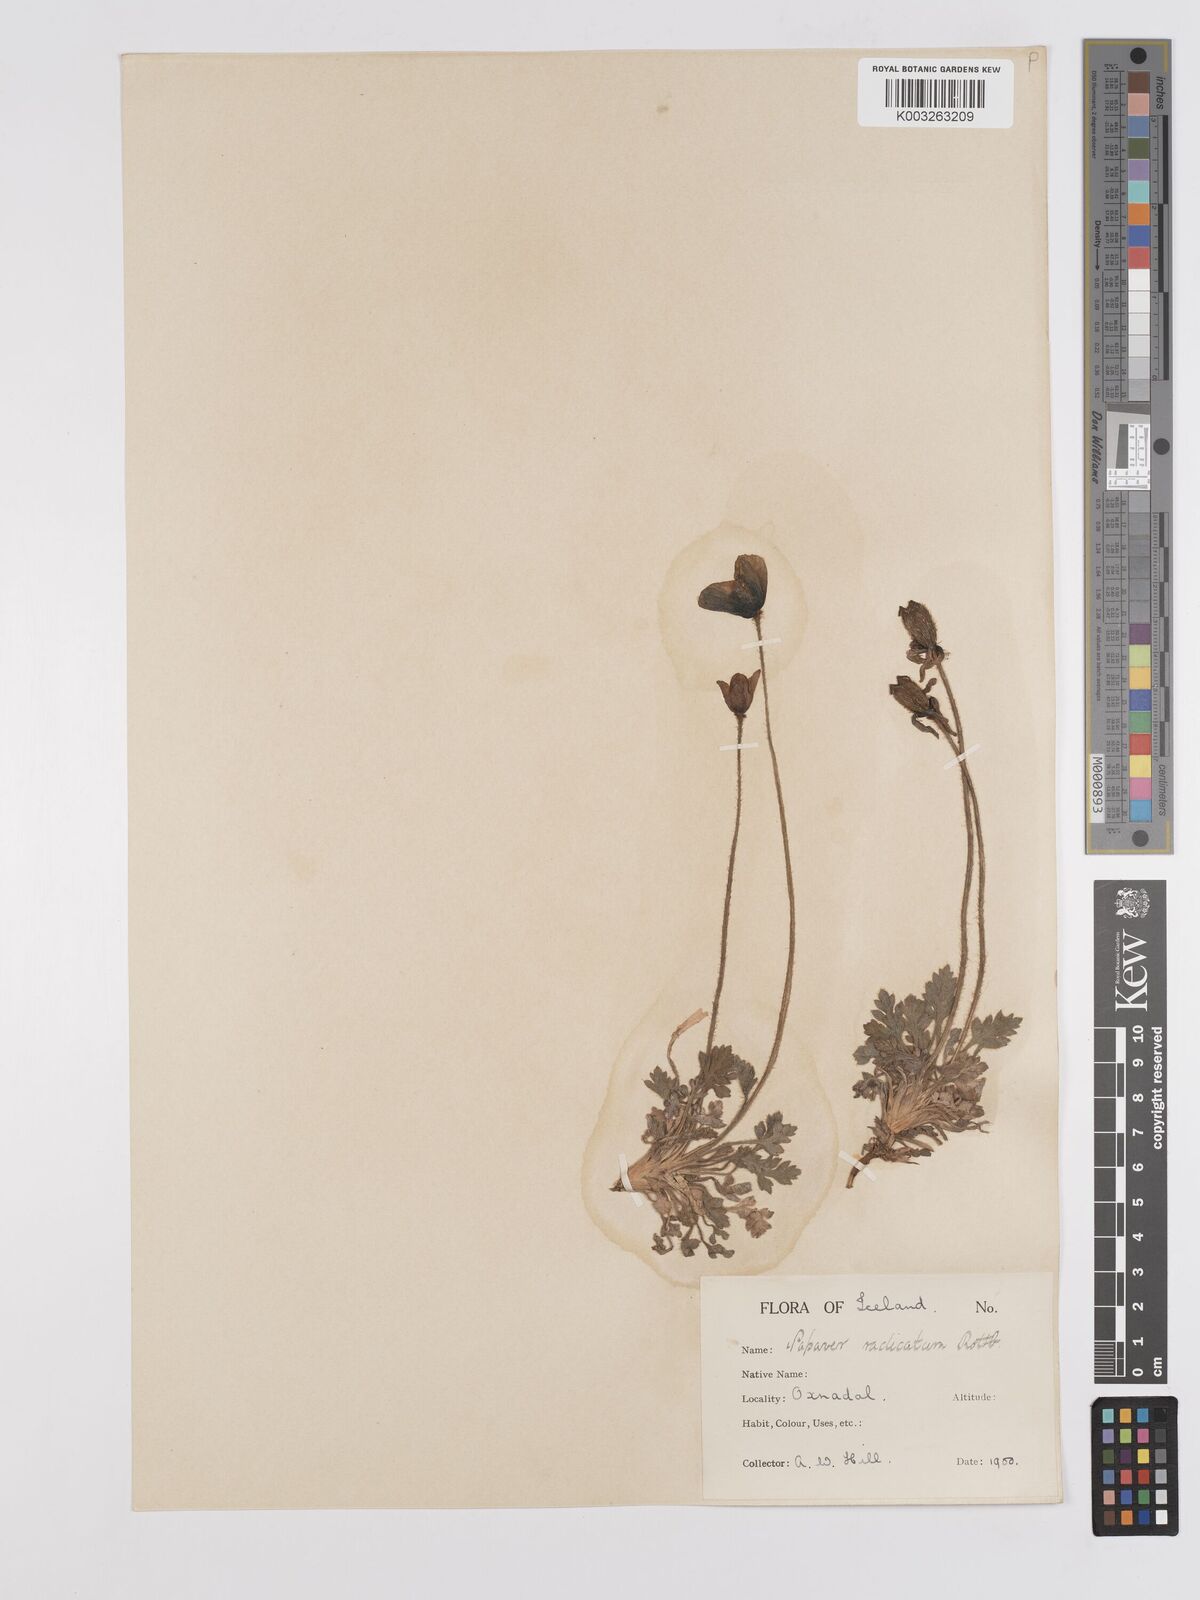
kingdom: Plantae
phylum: Tracheophyta
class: Magnoliopsida
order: Ranunculales
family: Papaveraceae
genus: Papaver
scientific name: Papaver radicatum
